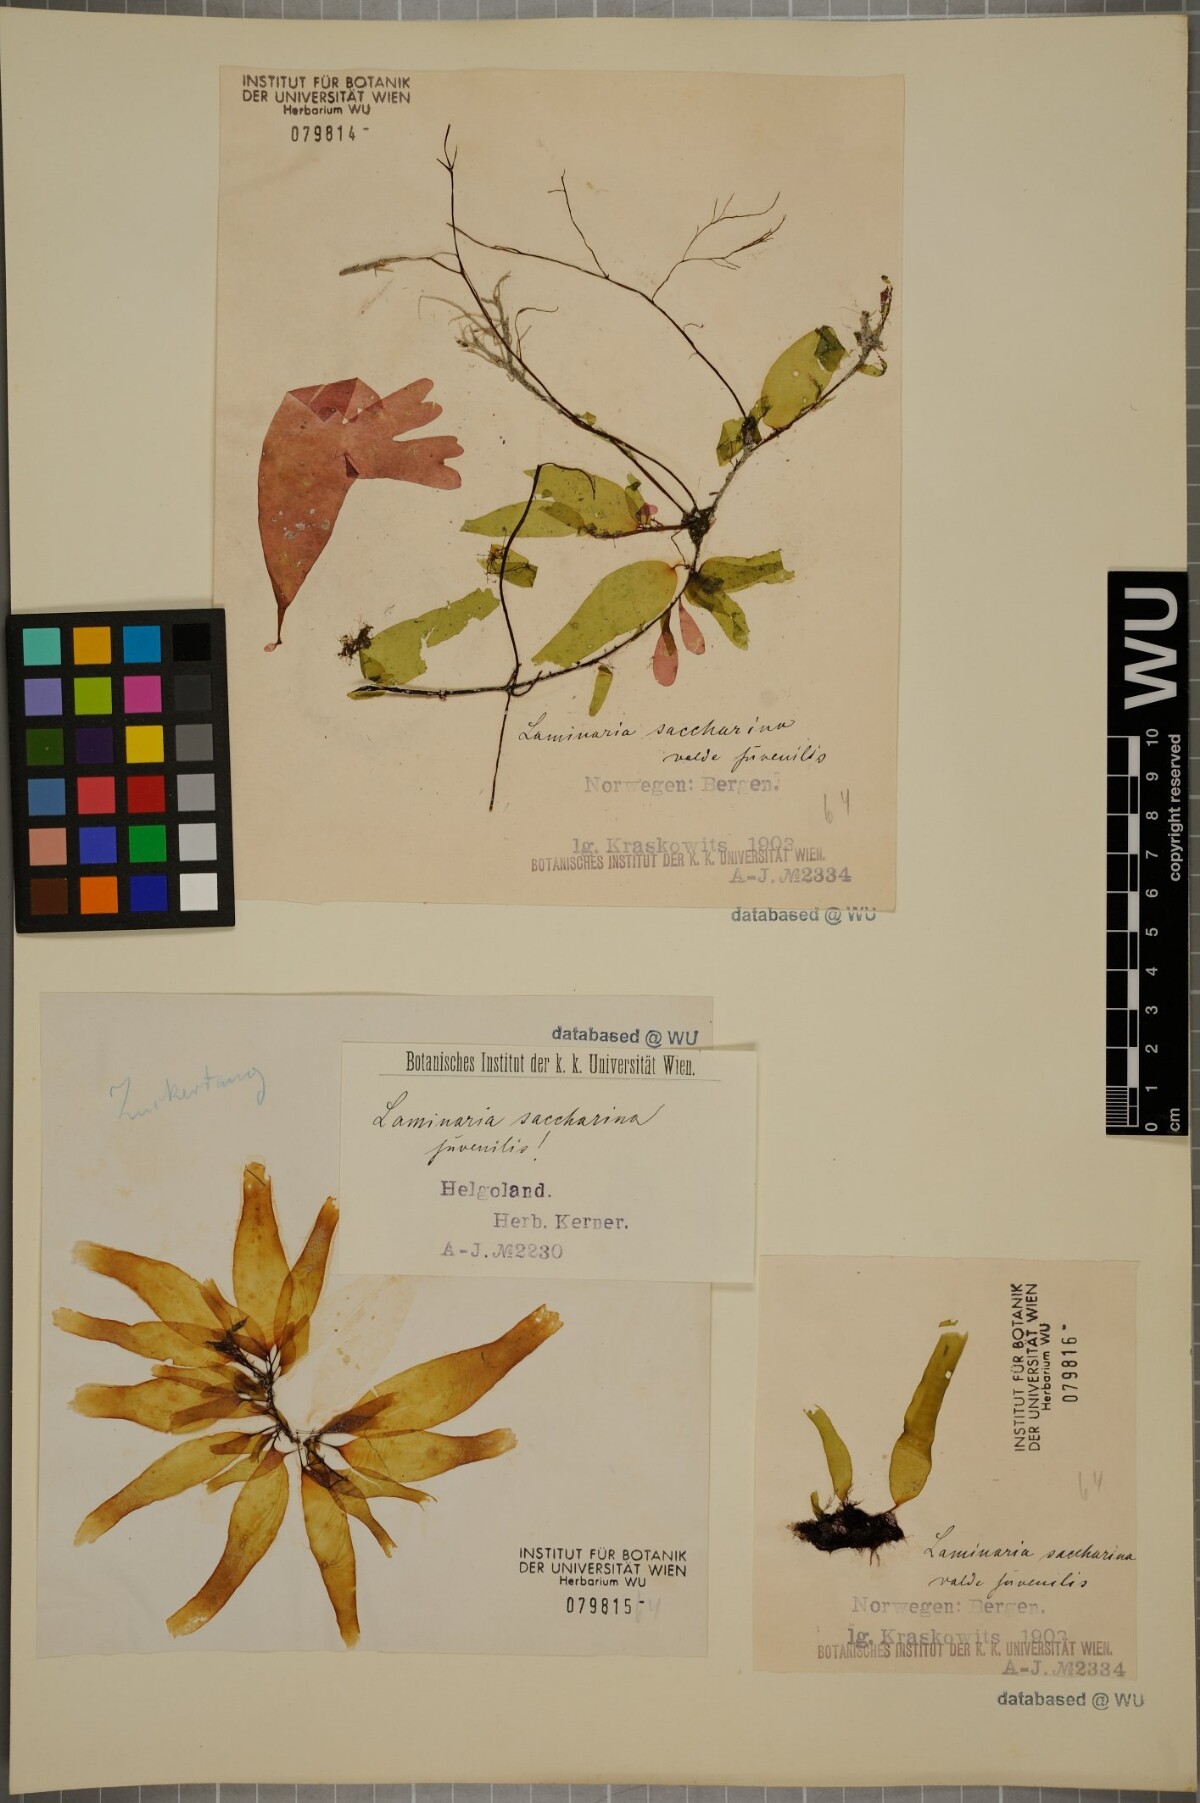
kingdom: Chromista
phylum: Ochrophyta
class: Phaeophyceae
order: Laminariales
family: Laminariaceae
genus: Saccharina
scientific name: Saccharina latissima
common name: Poor man's weather glass
